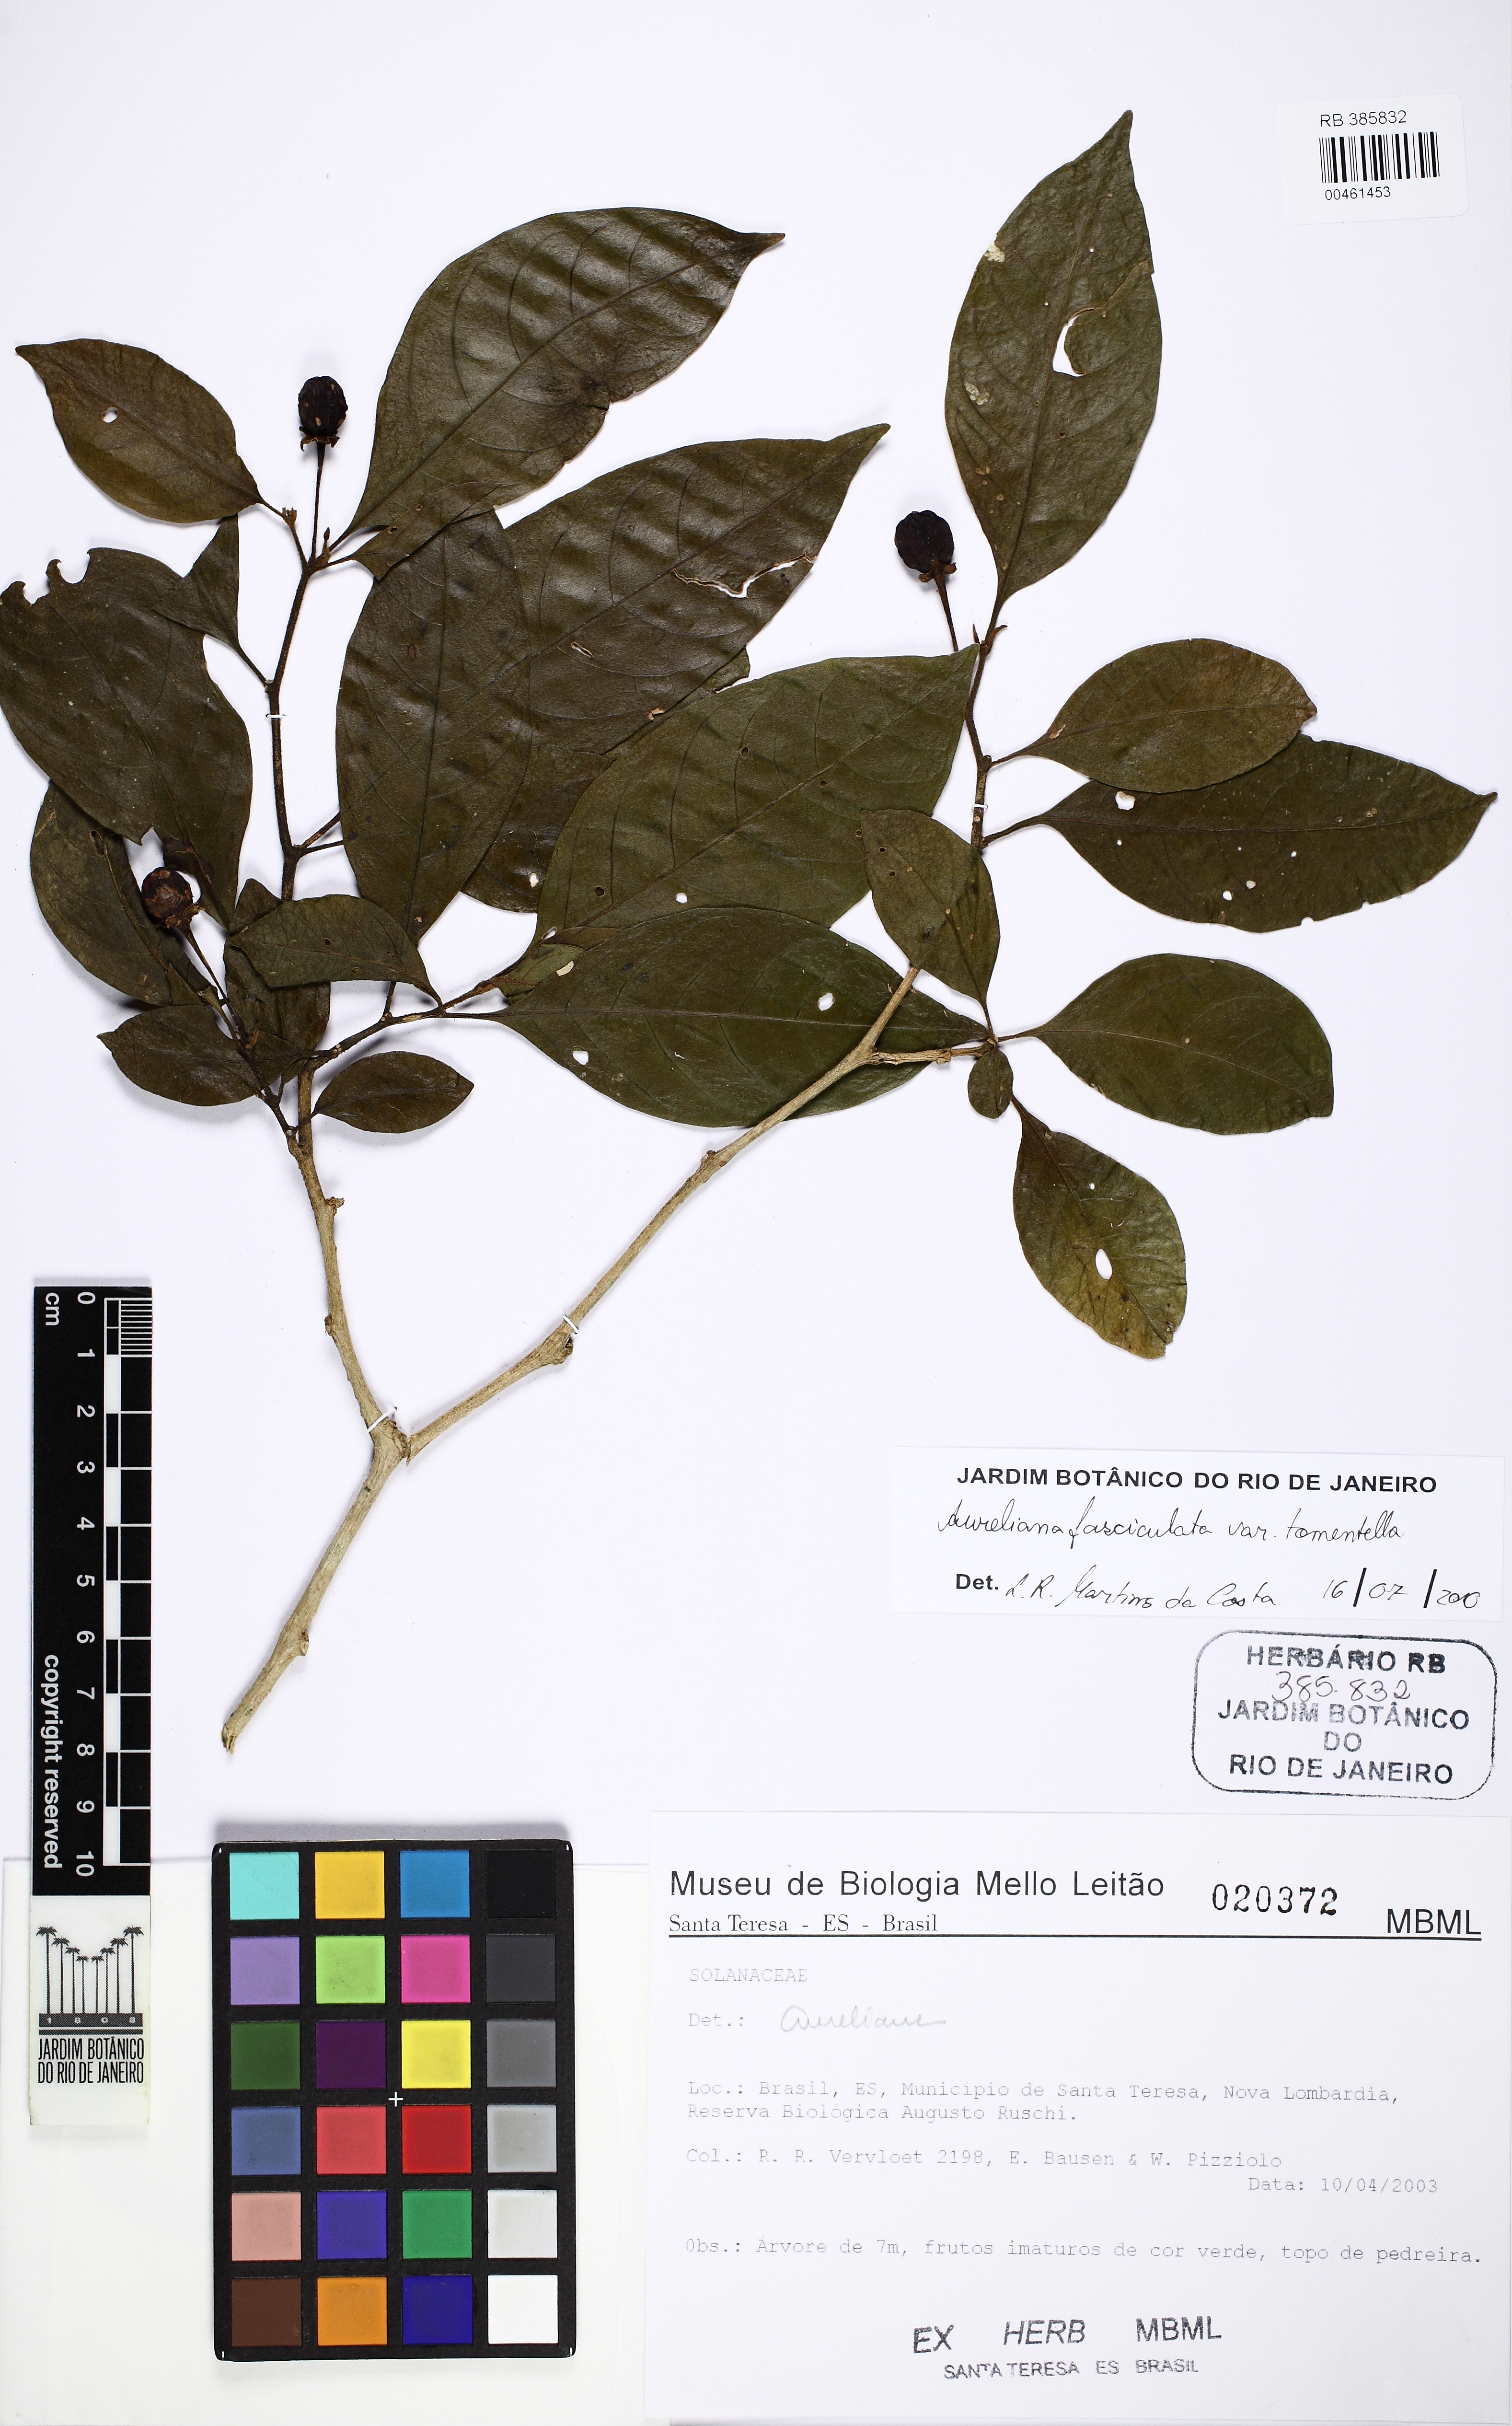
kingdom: Plantae
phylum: Tracheophyta
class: Magnoliopsida
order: Solanales
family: Solanaceae
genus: Athenaea
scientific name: Athenaea tomentosa
